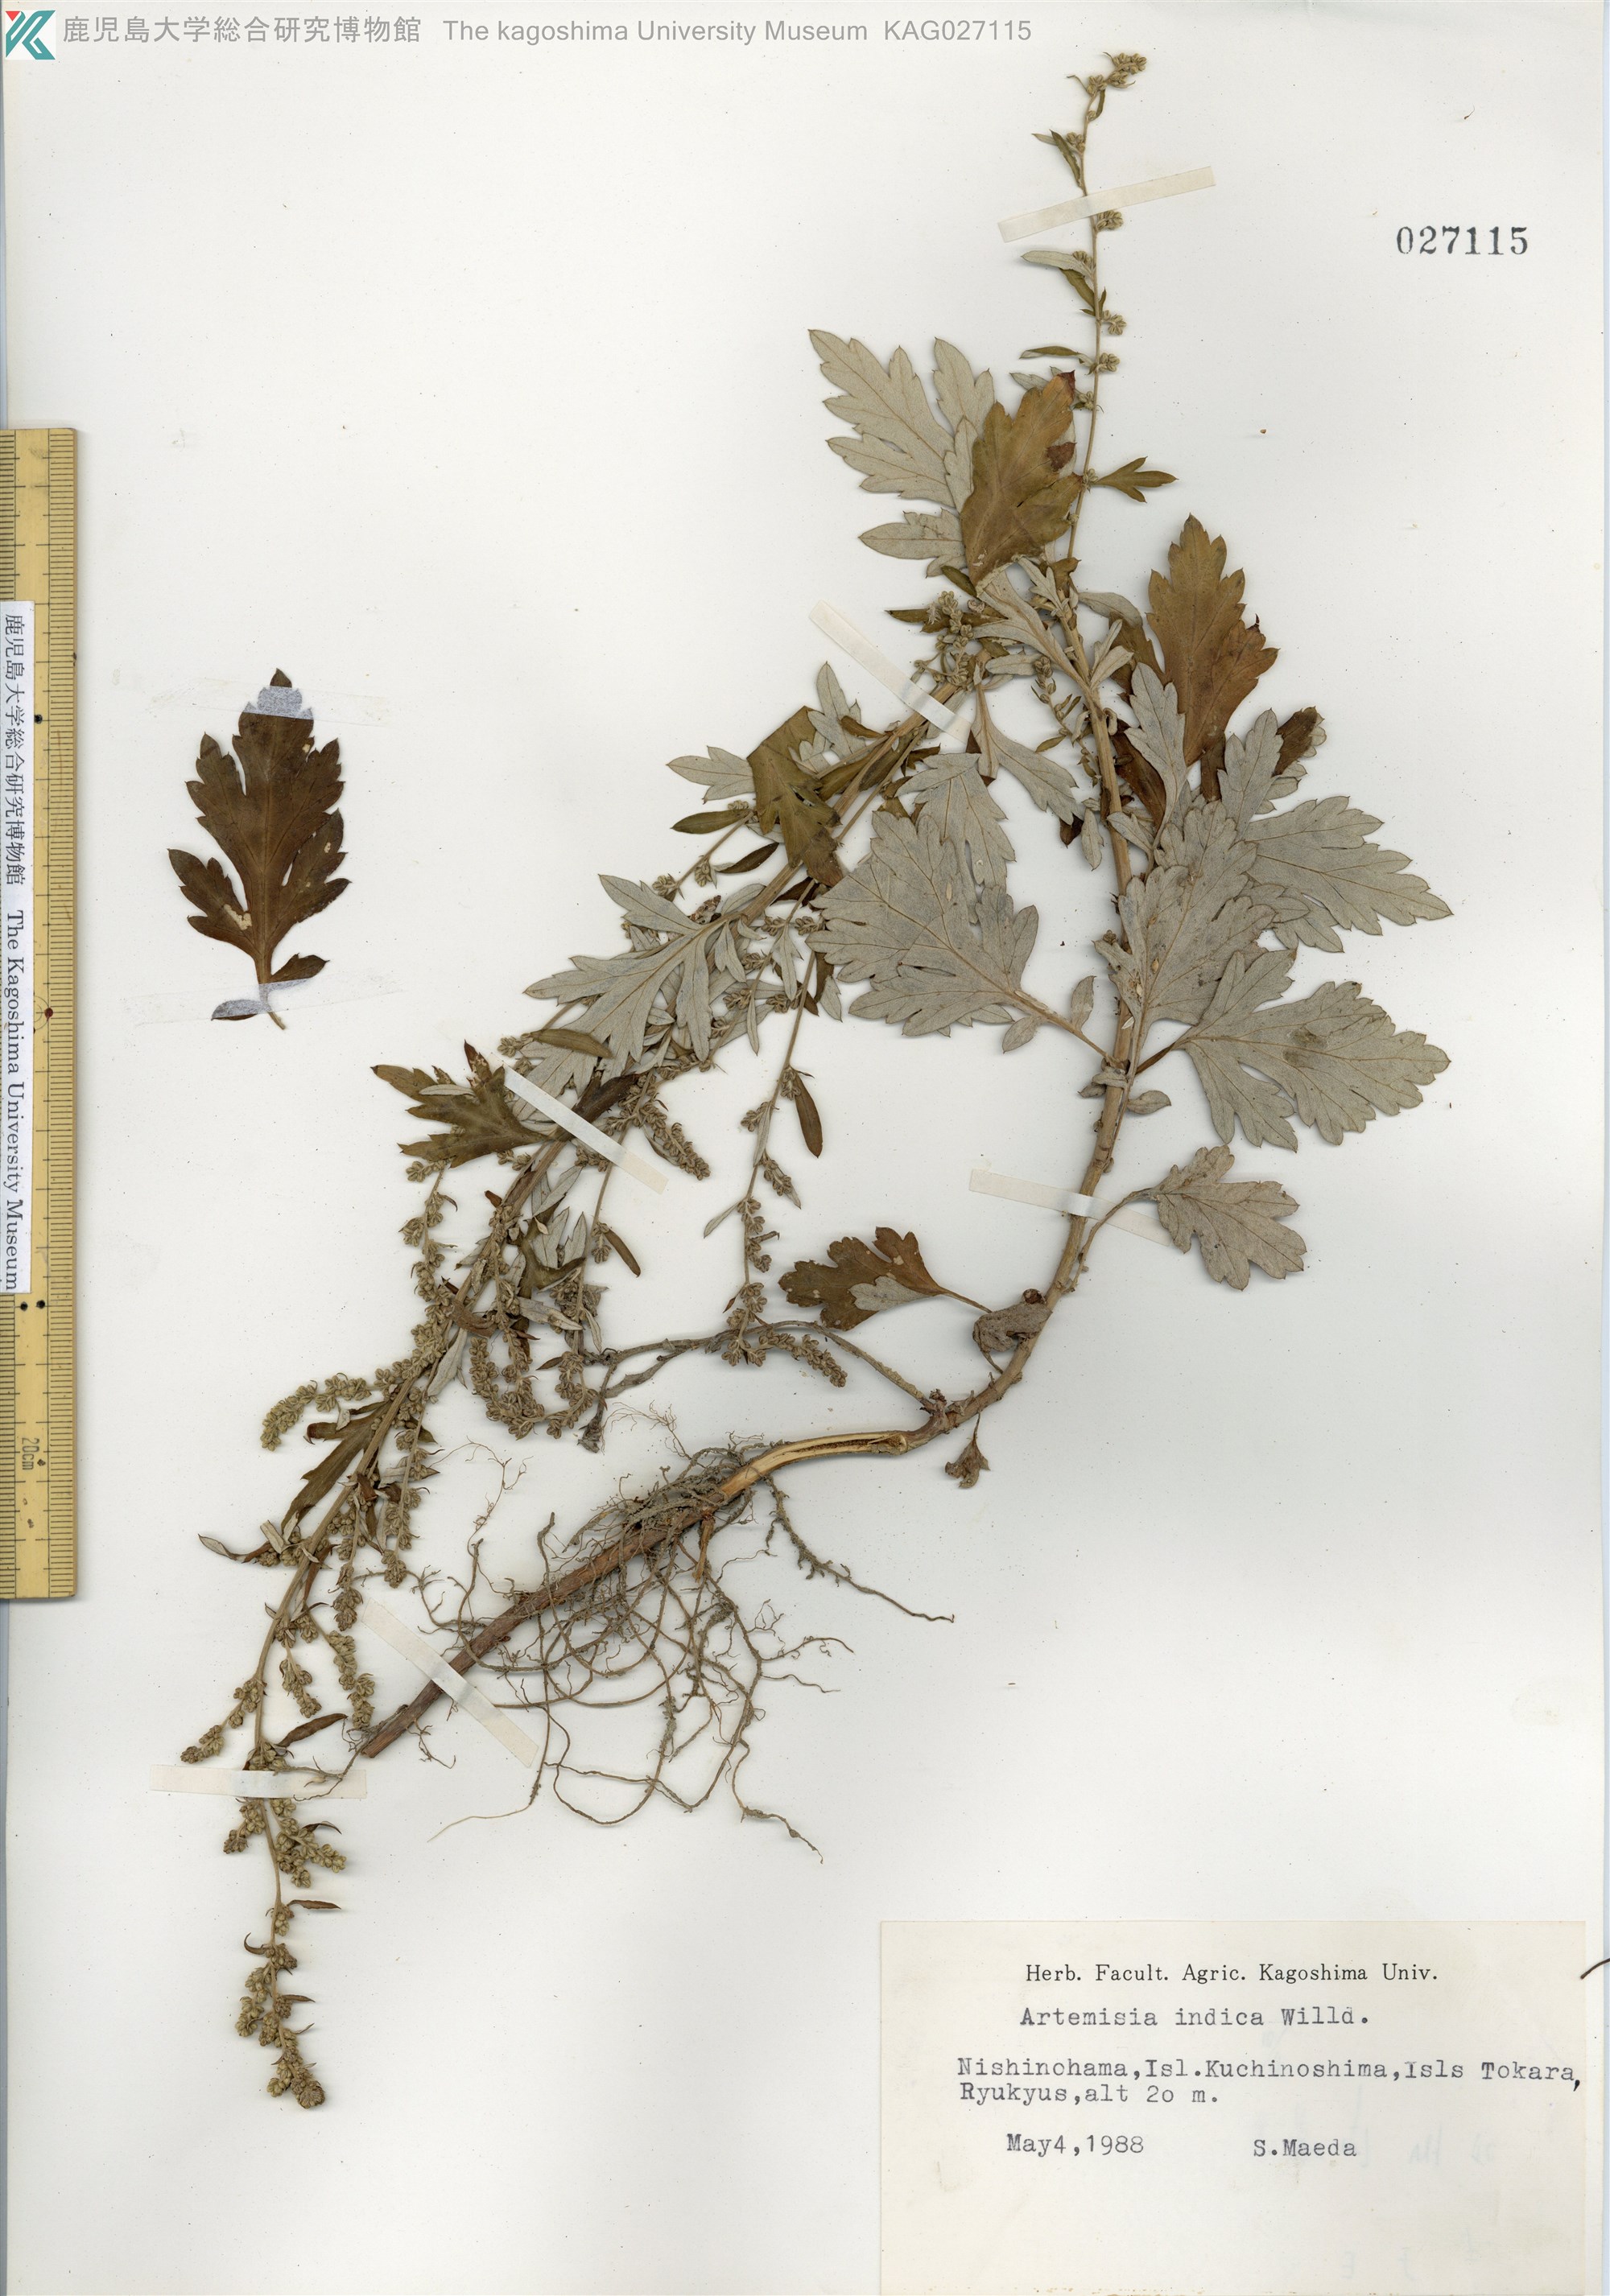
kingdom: Plantae
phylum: Tracheophyta
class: Magnoliopsida
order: Asterales
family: Asteraceae
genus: Artemisia
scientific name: Artemisia indica
